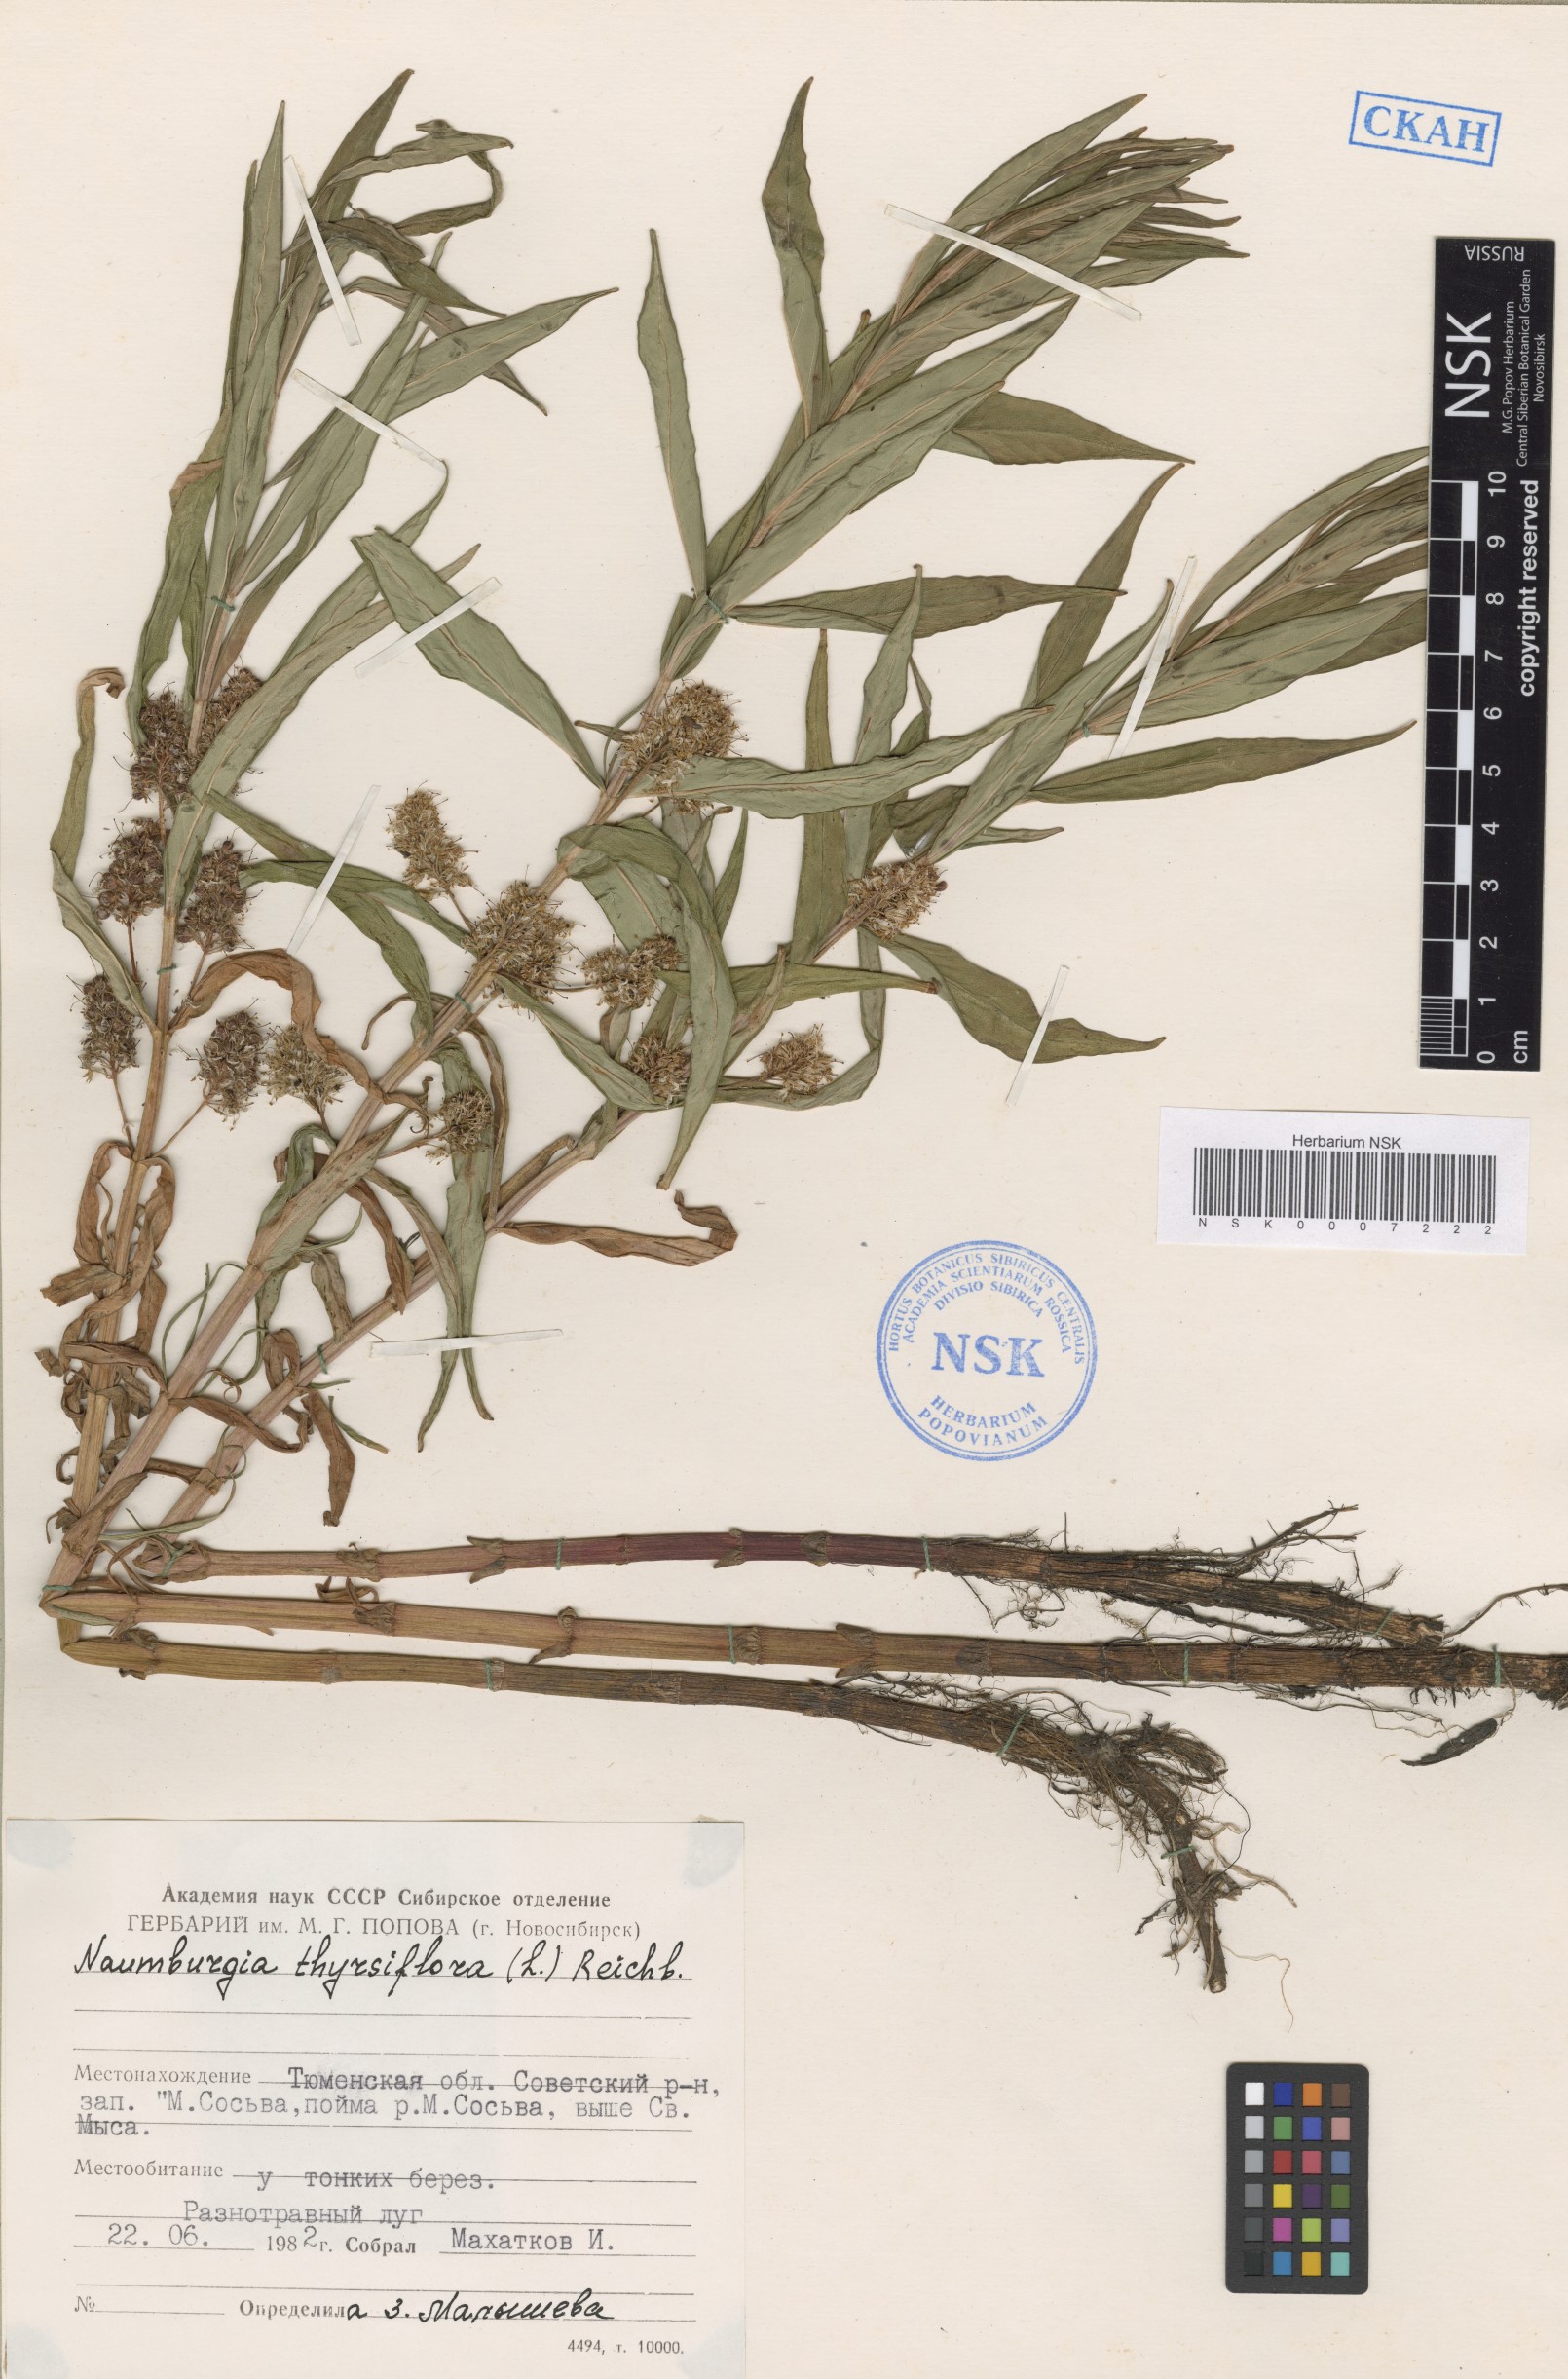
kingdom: Plantae
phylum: Tracheophyta
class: Magnoliopsida
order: Ericales
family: Primulaceae
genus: Lysimachia
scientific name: Lysimachia thyrsiflora
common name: Tufted loosestrife
